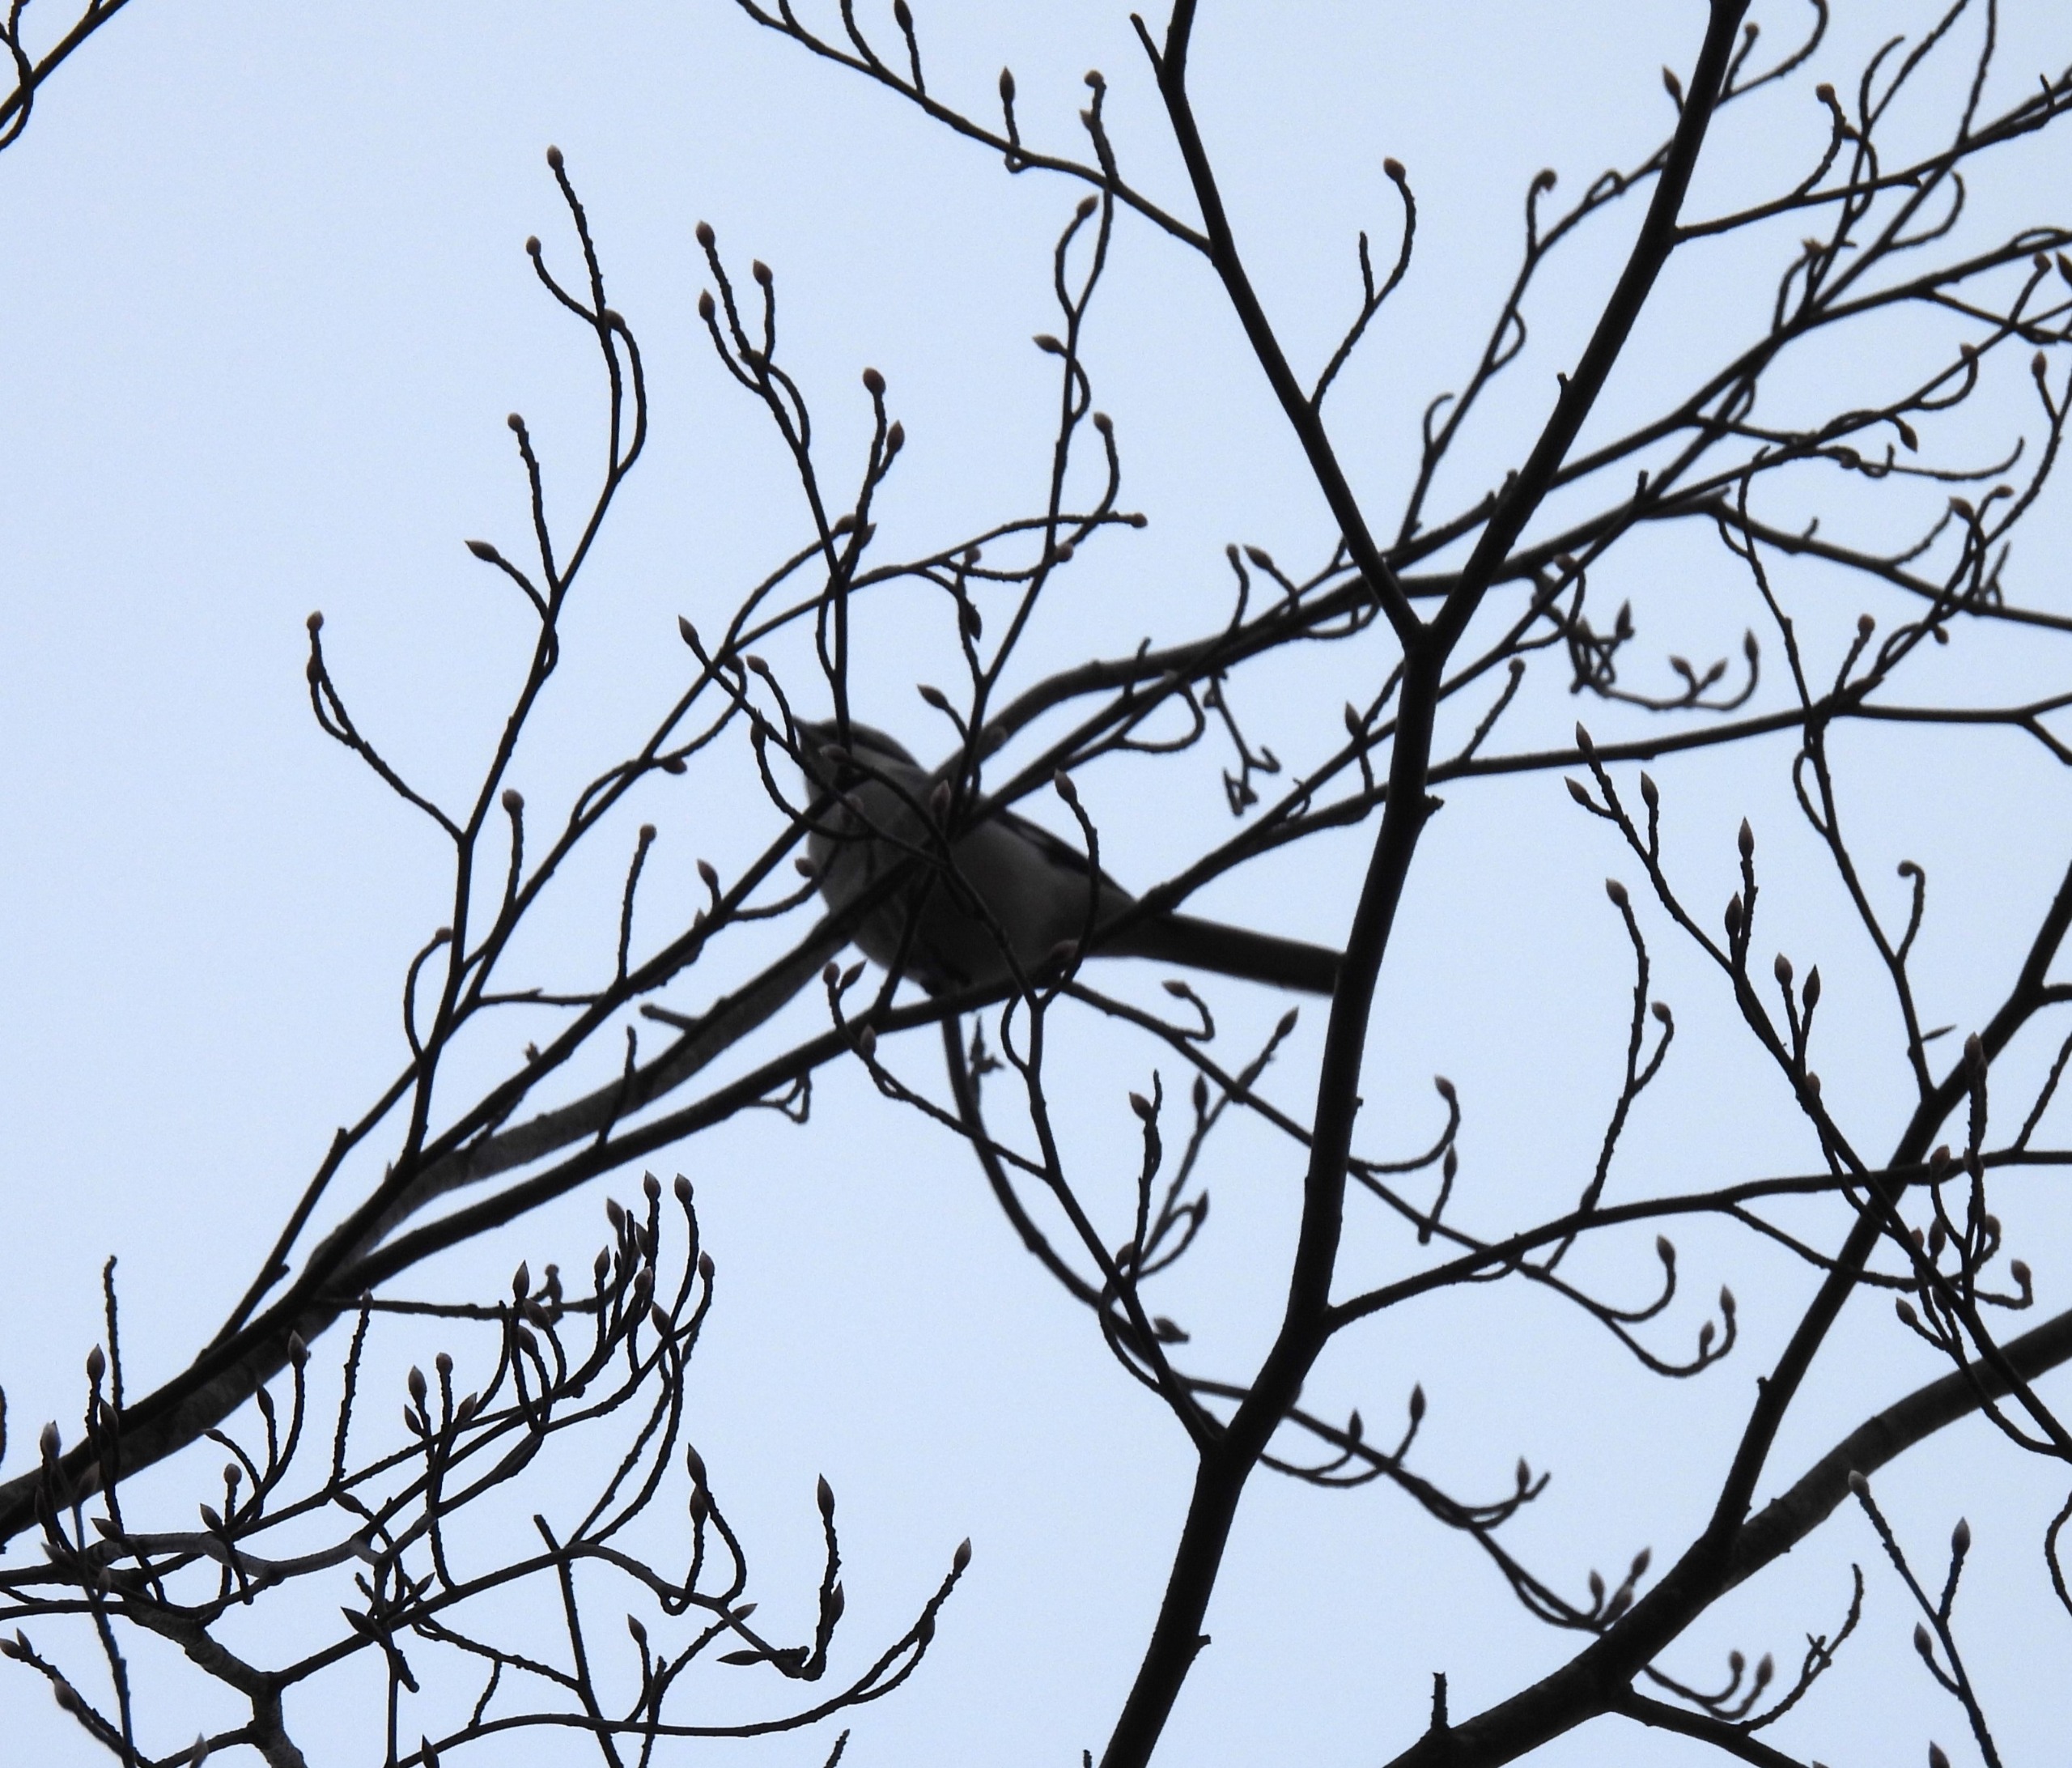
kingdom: Animalia
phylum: Chordata
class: Aves
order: Passeriformes
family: Laniidae
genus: Lanius
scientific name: Lanius excubitor
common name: Stor tornskade
